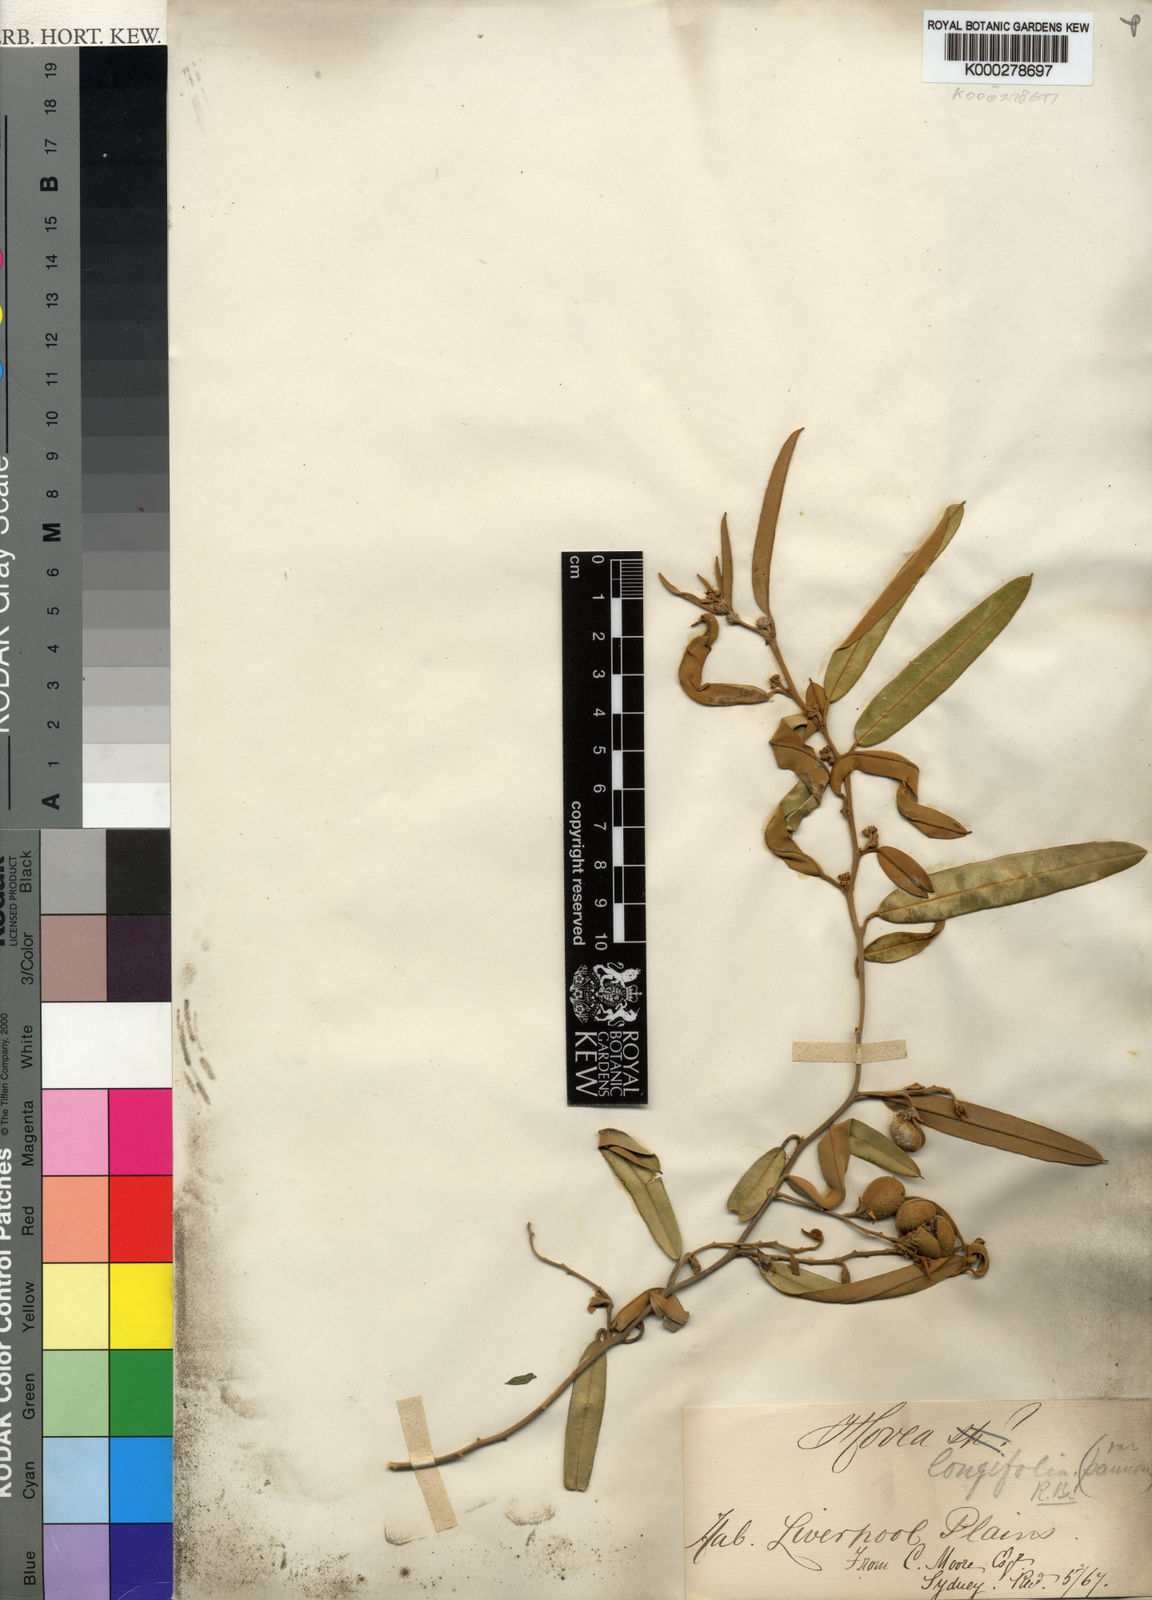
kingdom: Plantae
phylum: Tracheophyta
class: Magnoliopsida
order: Fabales
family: Fabaceae
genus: Hovea
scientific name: Hovea longifolia
